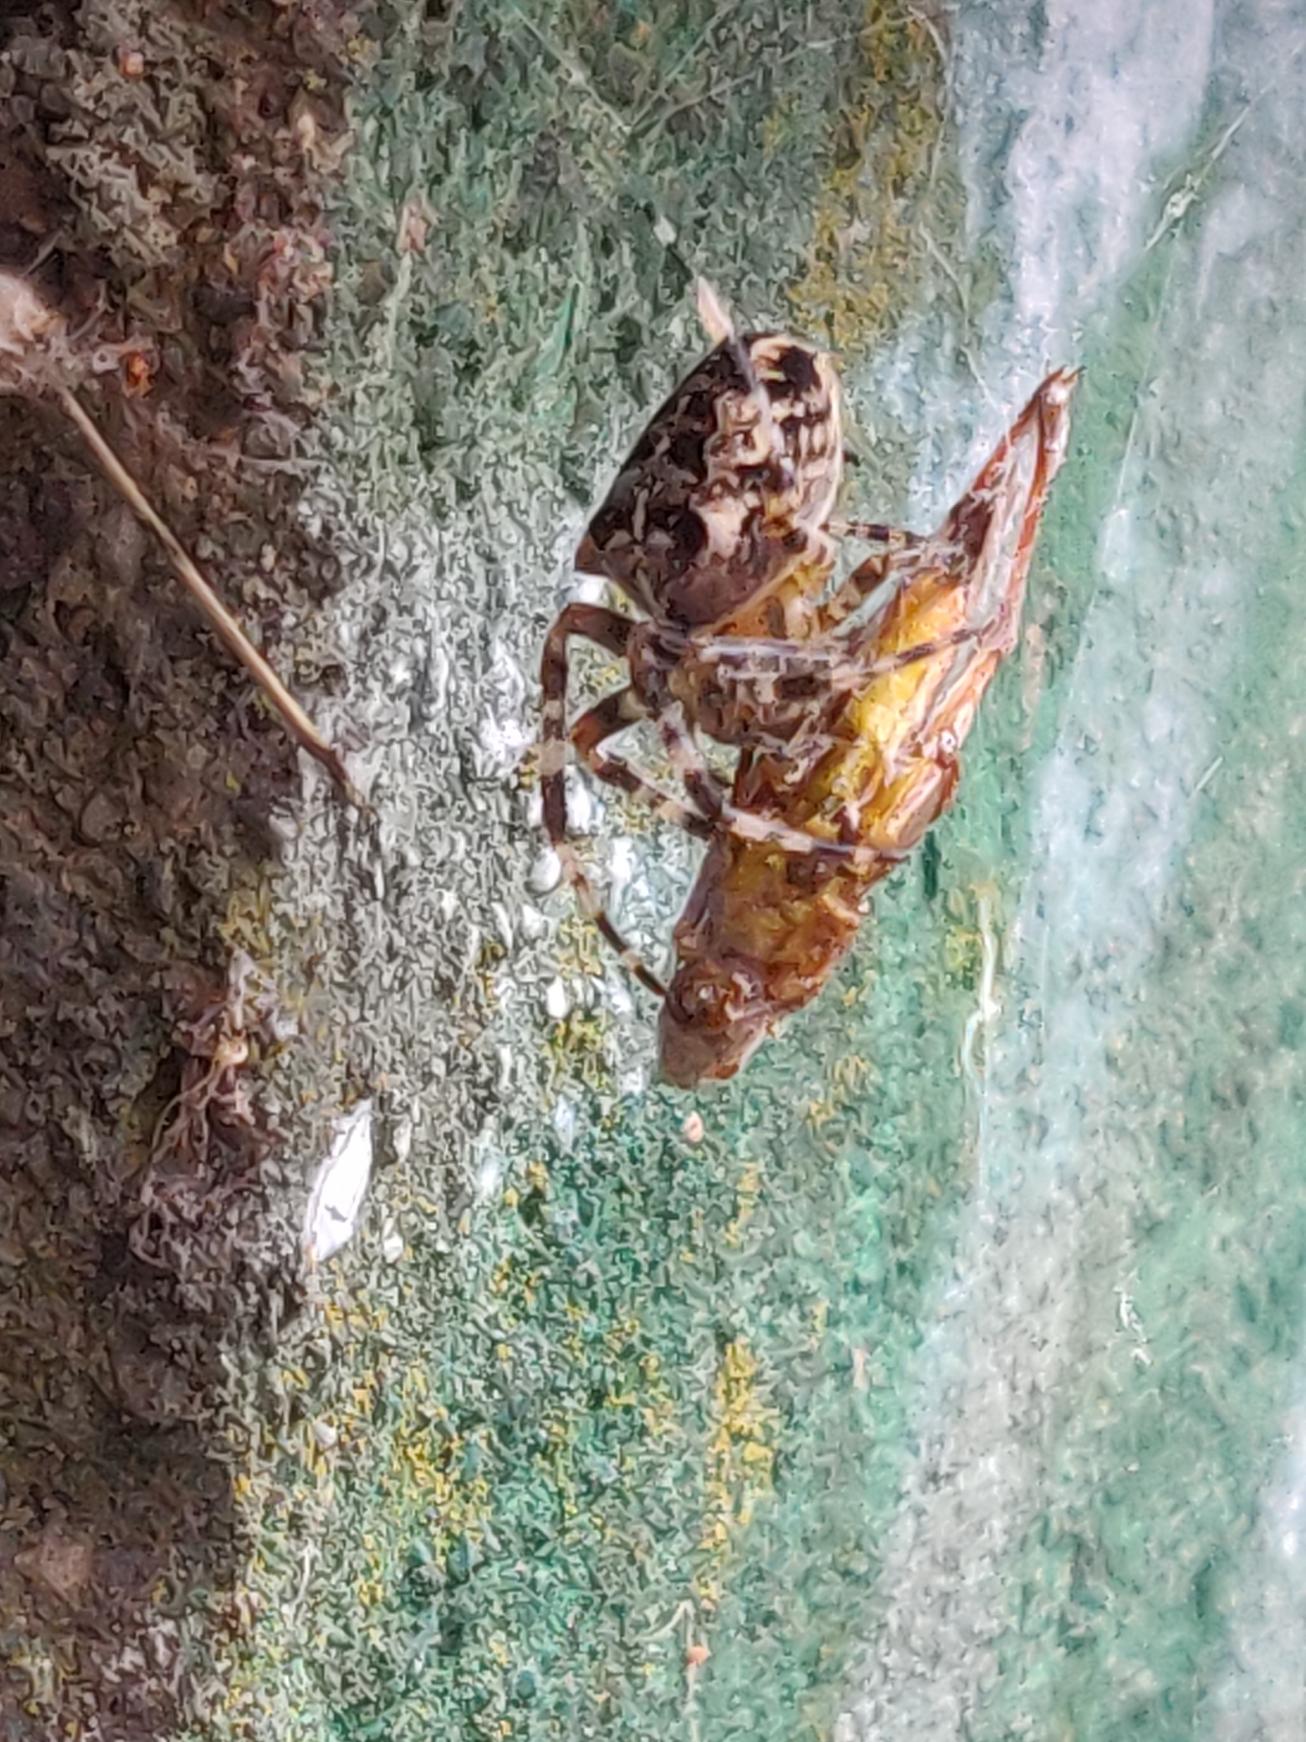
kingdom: Animalia
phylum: Arthropoda
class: Arachnida
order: Araneae
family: Araneidae
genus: Araneus
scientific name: Araneus diadematus
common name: Korsedderkop
